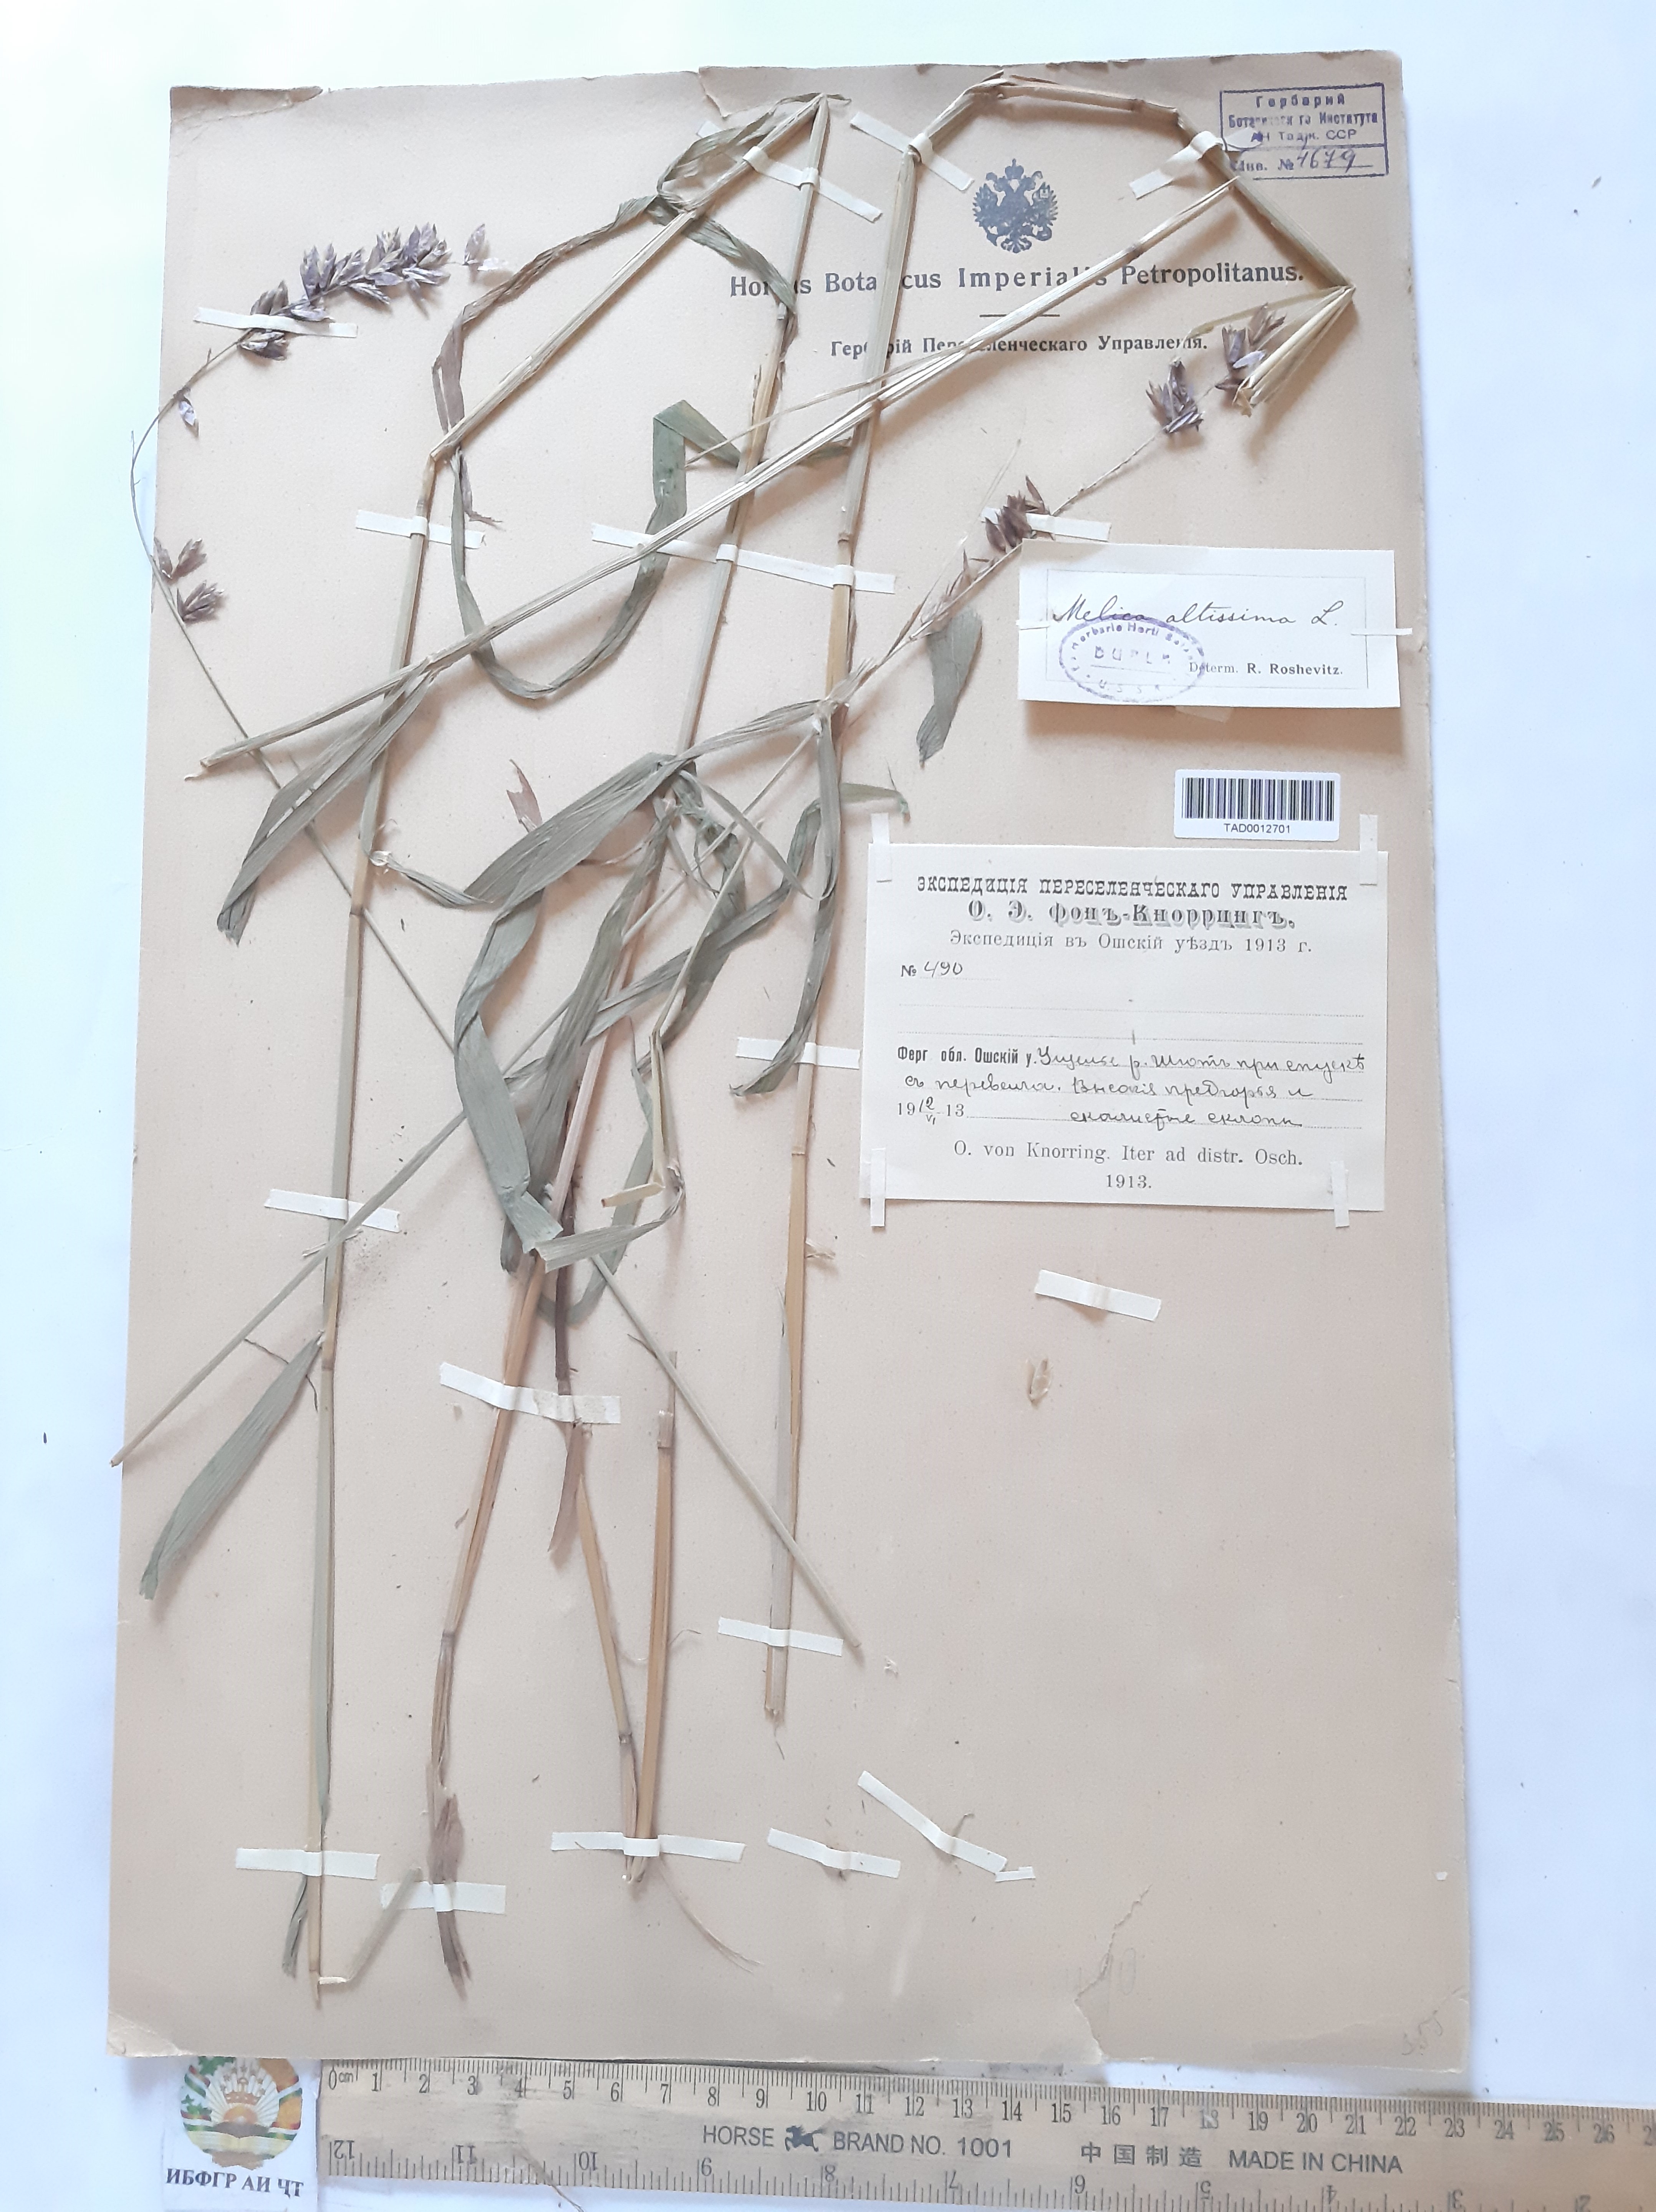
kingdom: Plantae
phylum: Tracheophyta
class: Liliopsida
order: Poales
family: Poaceae
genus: Melica
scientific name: Melica altissima
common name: Siberian melicgrass
